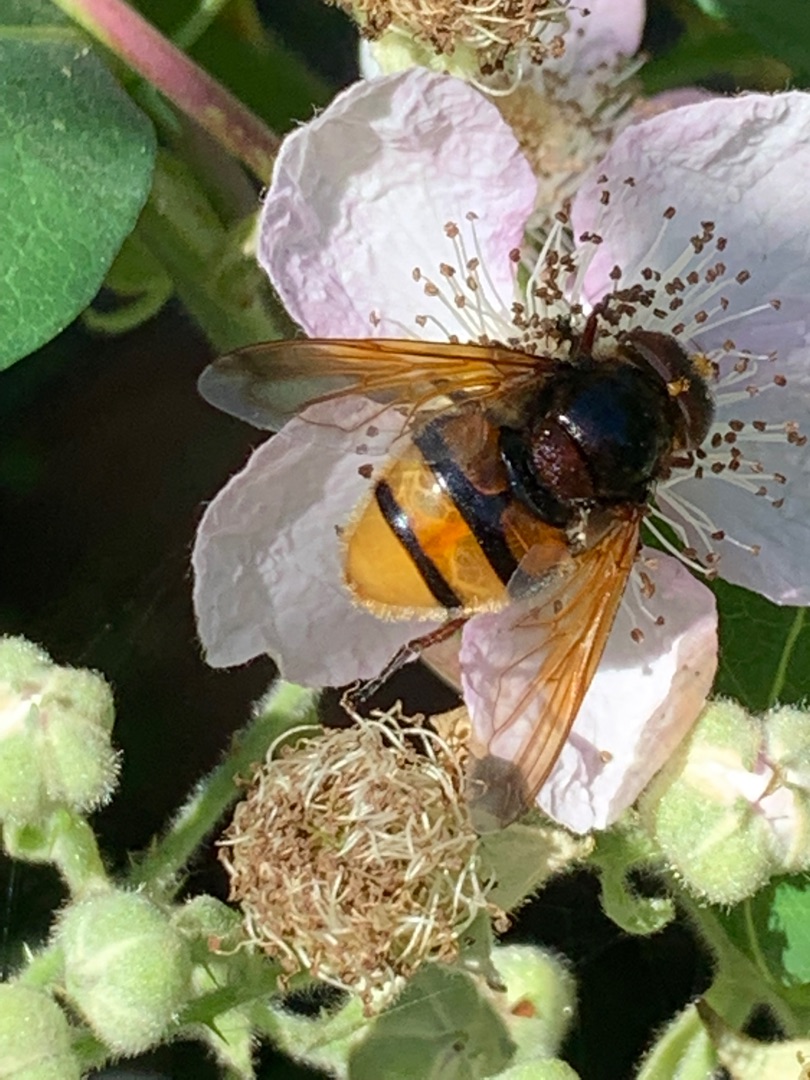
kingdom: Animalia
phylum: Arthropoda
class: Insecta
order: Diptera
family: Syrphidae
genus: Volucella
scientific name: Volucella zonaria
